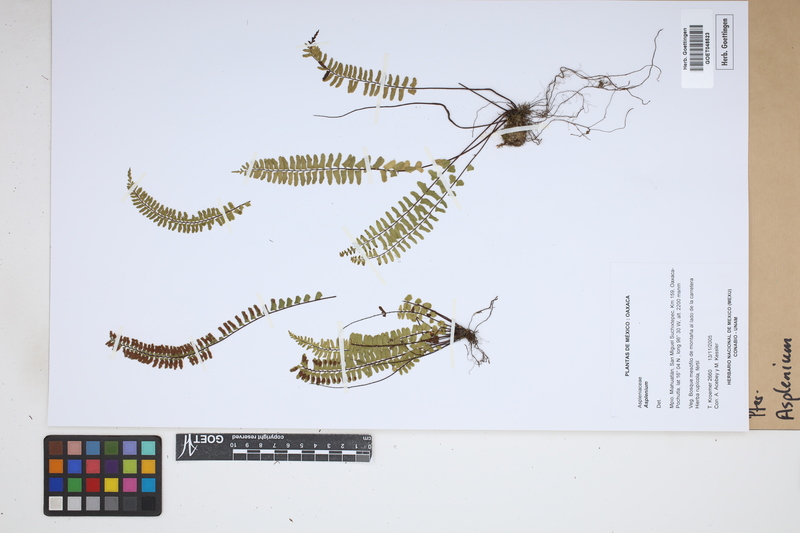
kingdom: Plantae
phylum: Tracheophyta
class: Polypodiopsida
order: Polypodiales
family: Aspleniaceae
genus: Asplenium
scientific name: Asplenium
